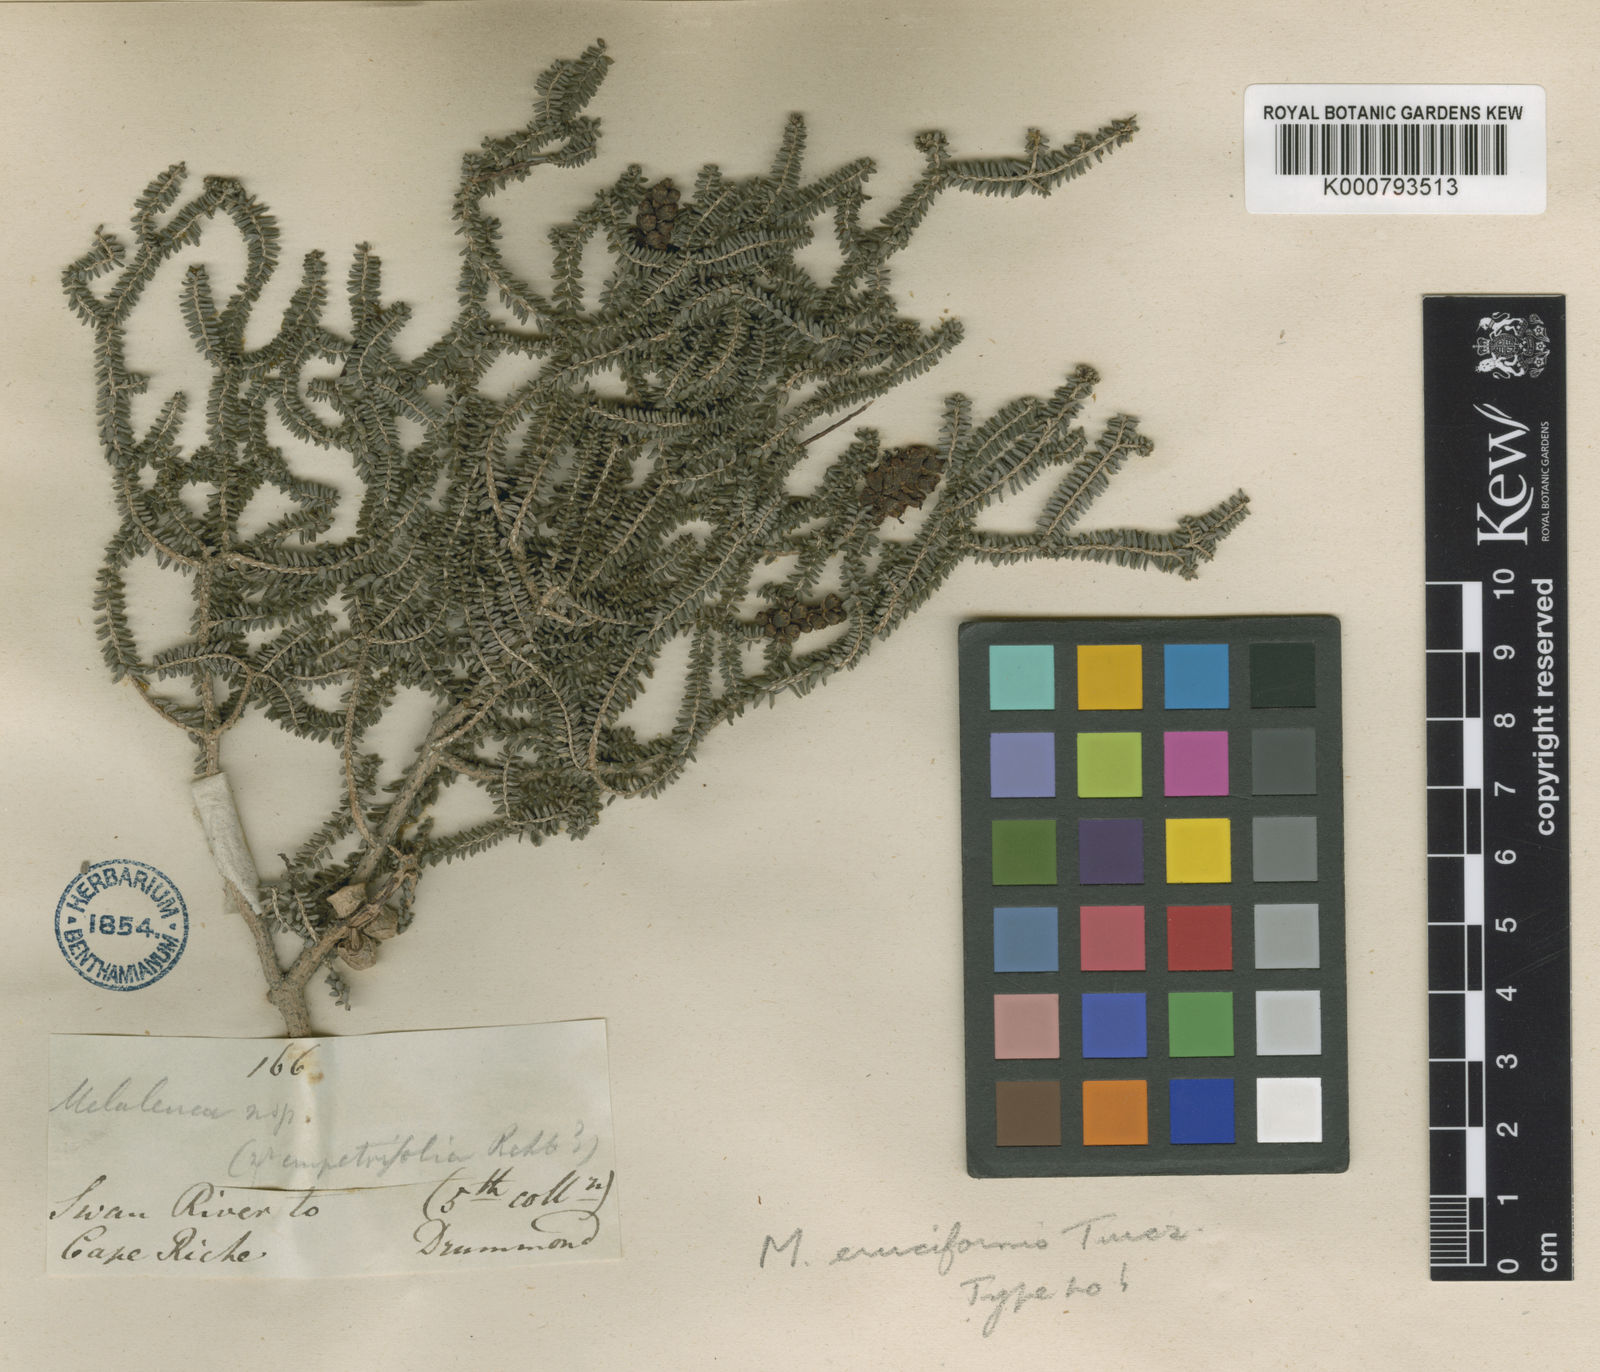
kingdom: Plantae
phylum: Tracheophyta
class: Magnoliopsida
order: Myrtales
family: Myrtaceae
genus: Melaleuca
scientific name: Melaleuca blaeriifolia
